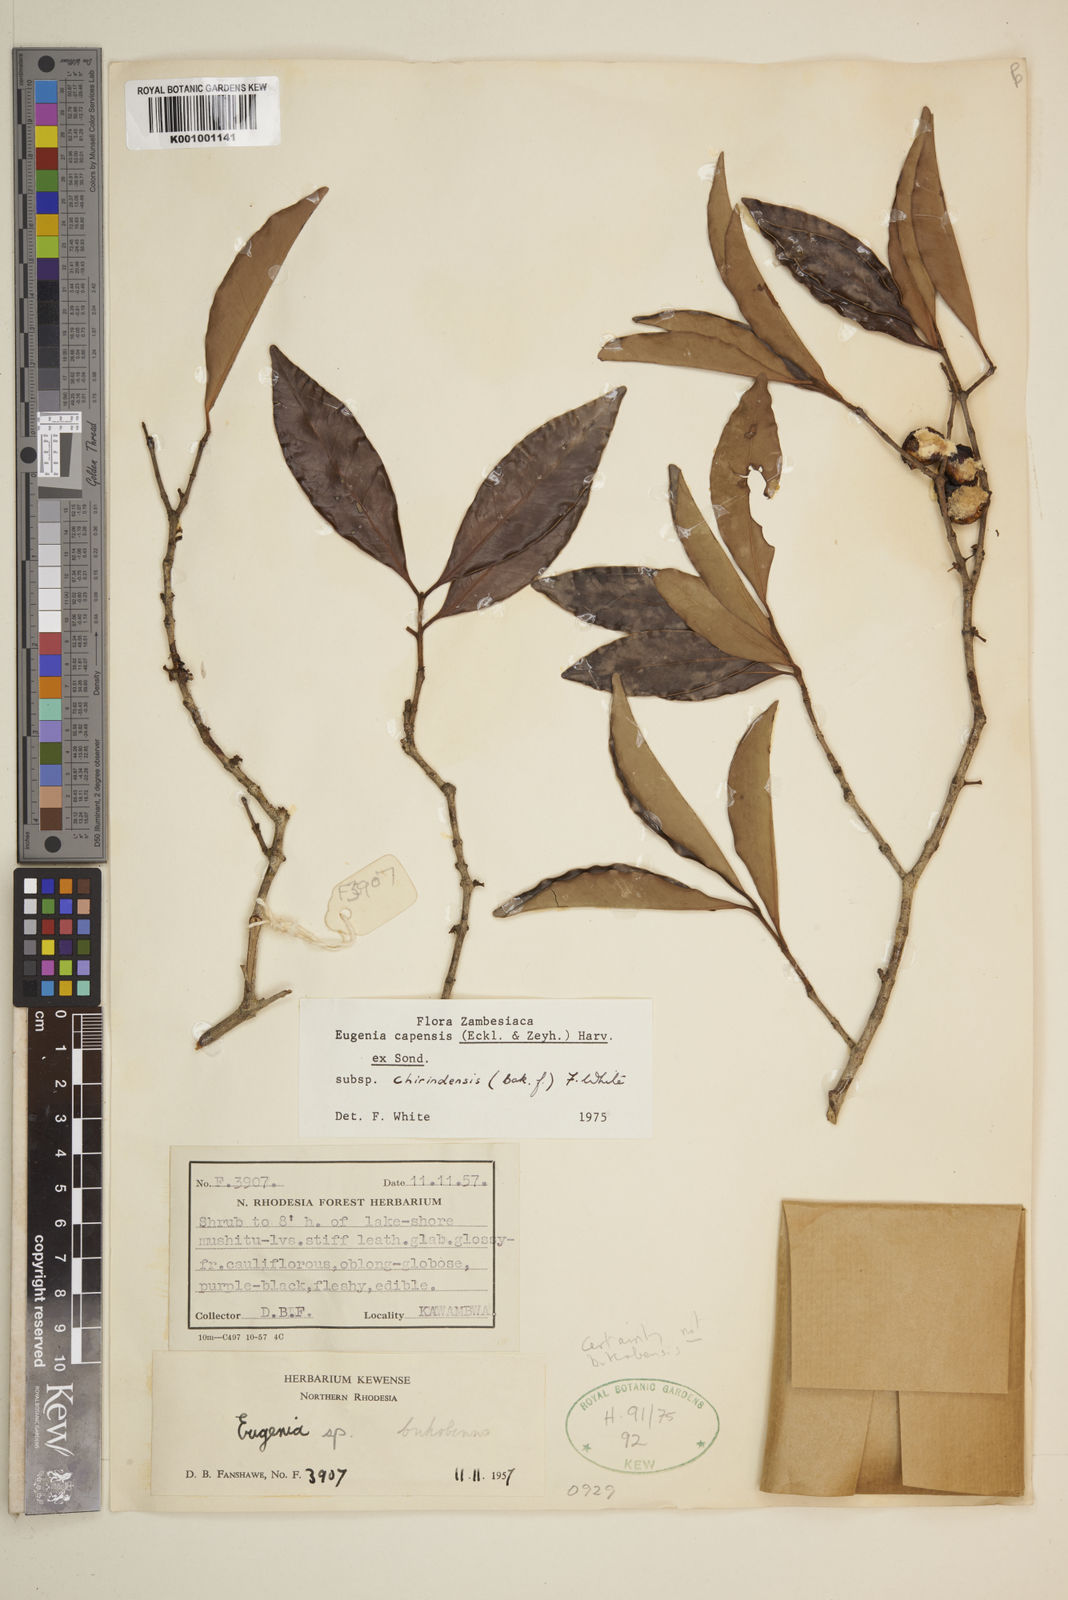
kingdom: Plantae
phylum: Tracheophyta
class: Magnoliopsida
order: Myrtales
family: Myrtaceae
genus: Eugenia
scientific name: Eugenia capensis
